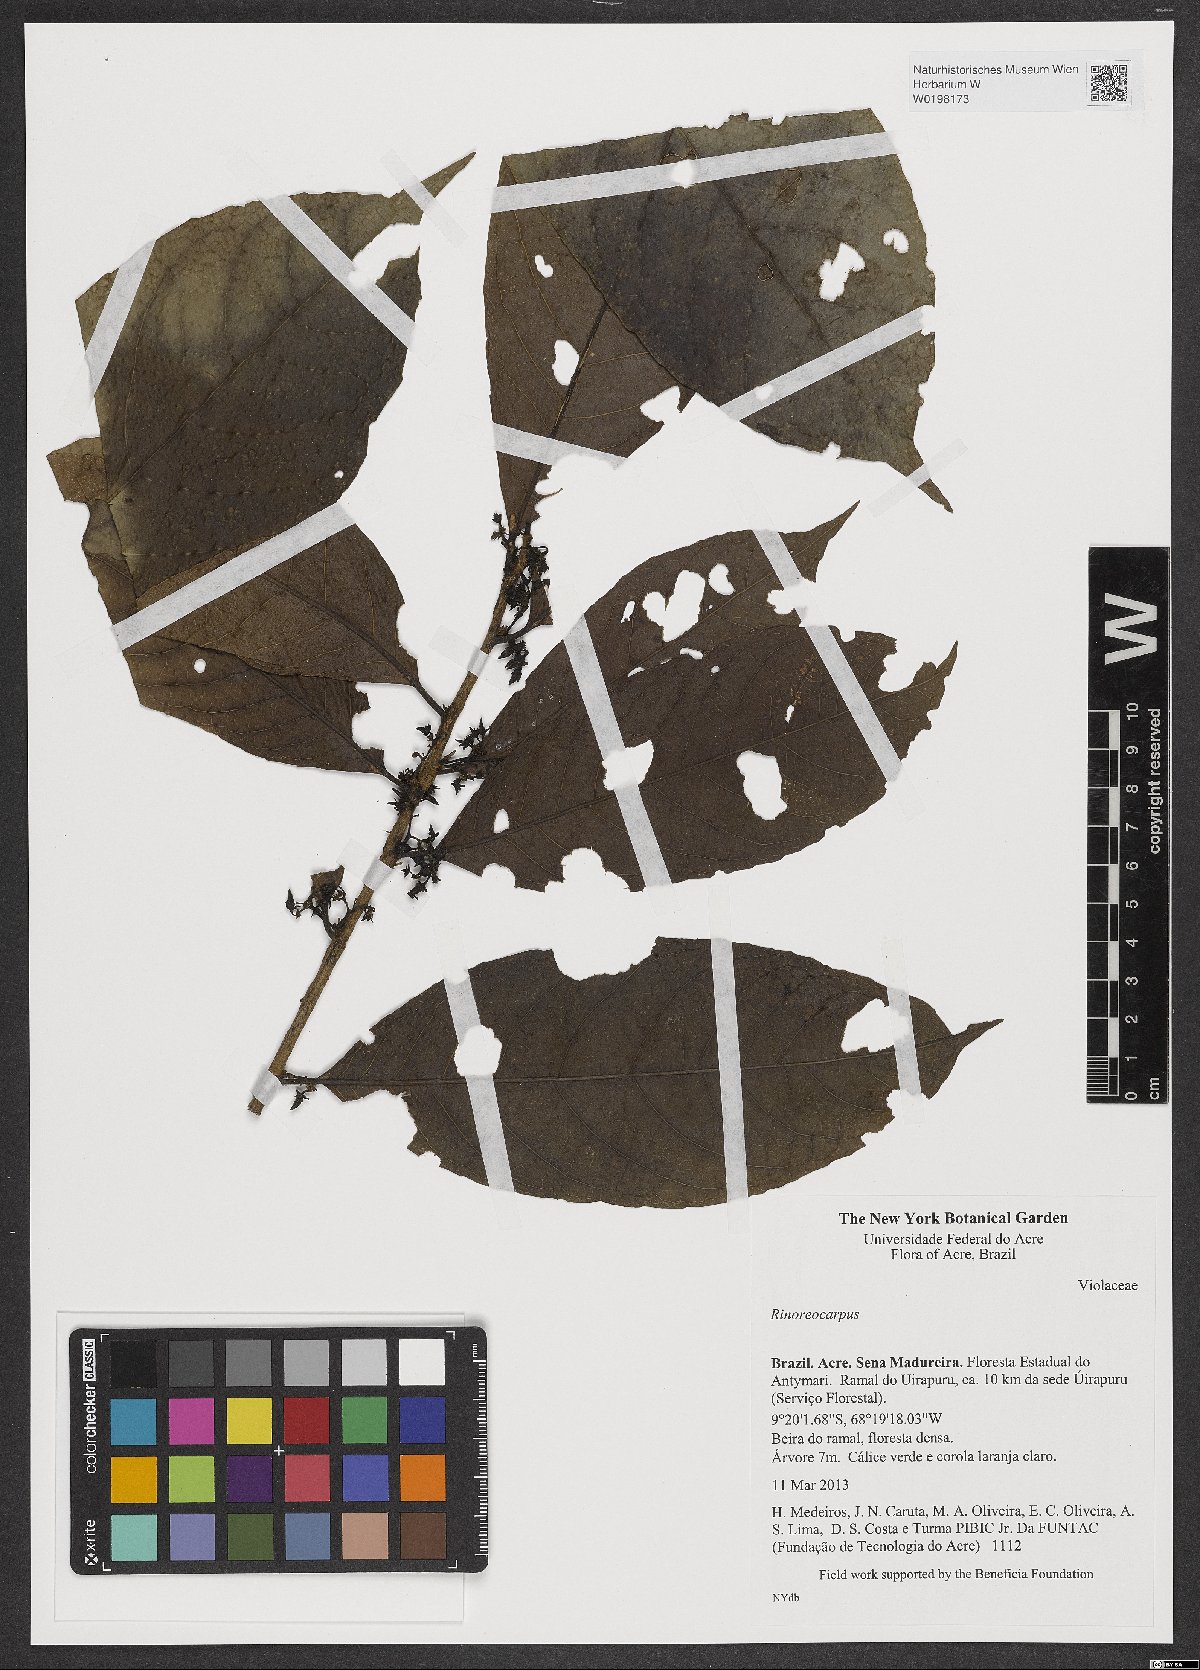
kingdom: Plantae
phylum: Tracheophyta
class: Magnoliopsida
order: Malpighiales
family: Violaceae
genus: Rinoreocarpus
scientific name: Rinoreocarpus
